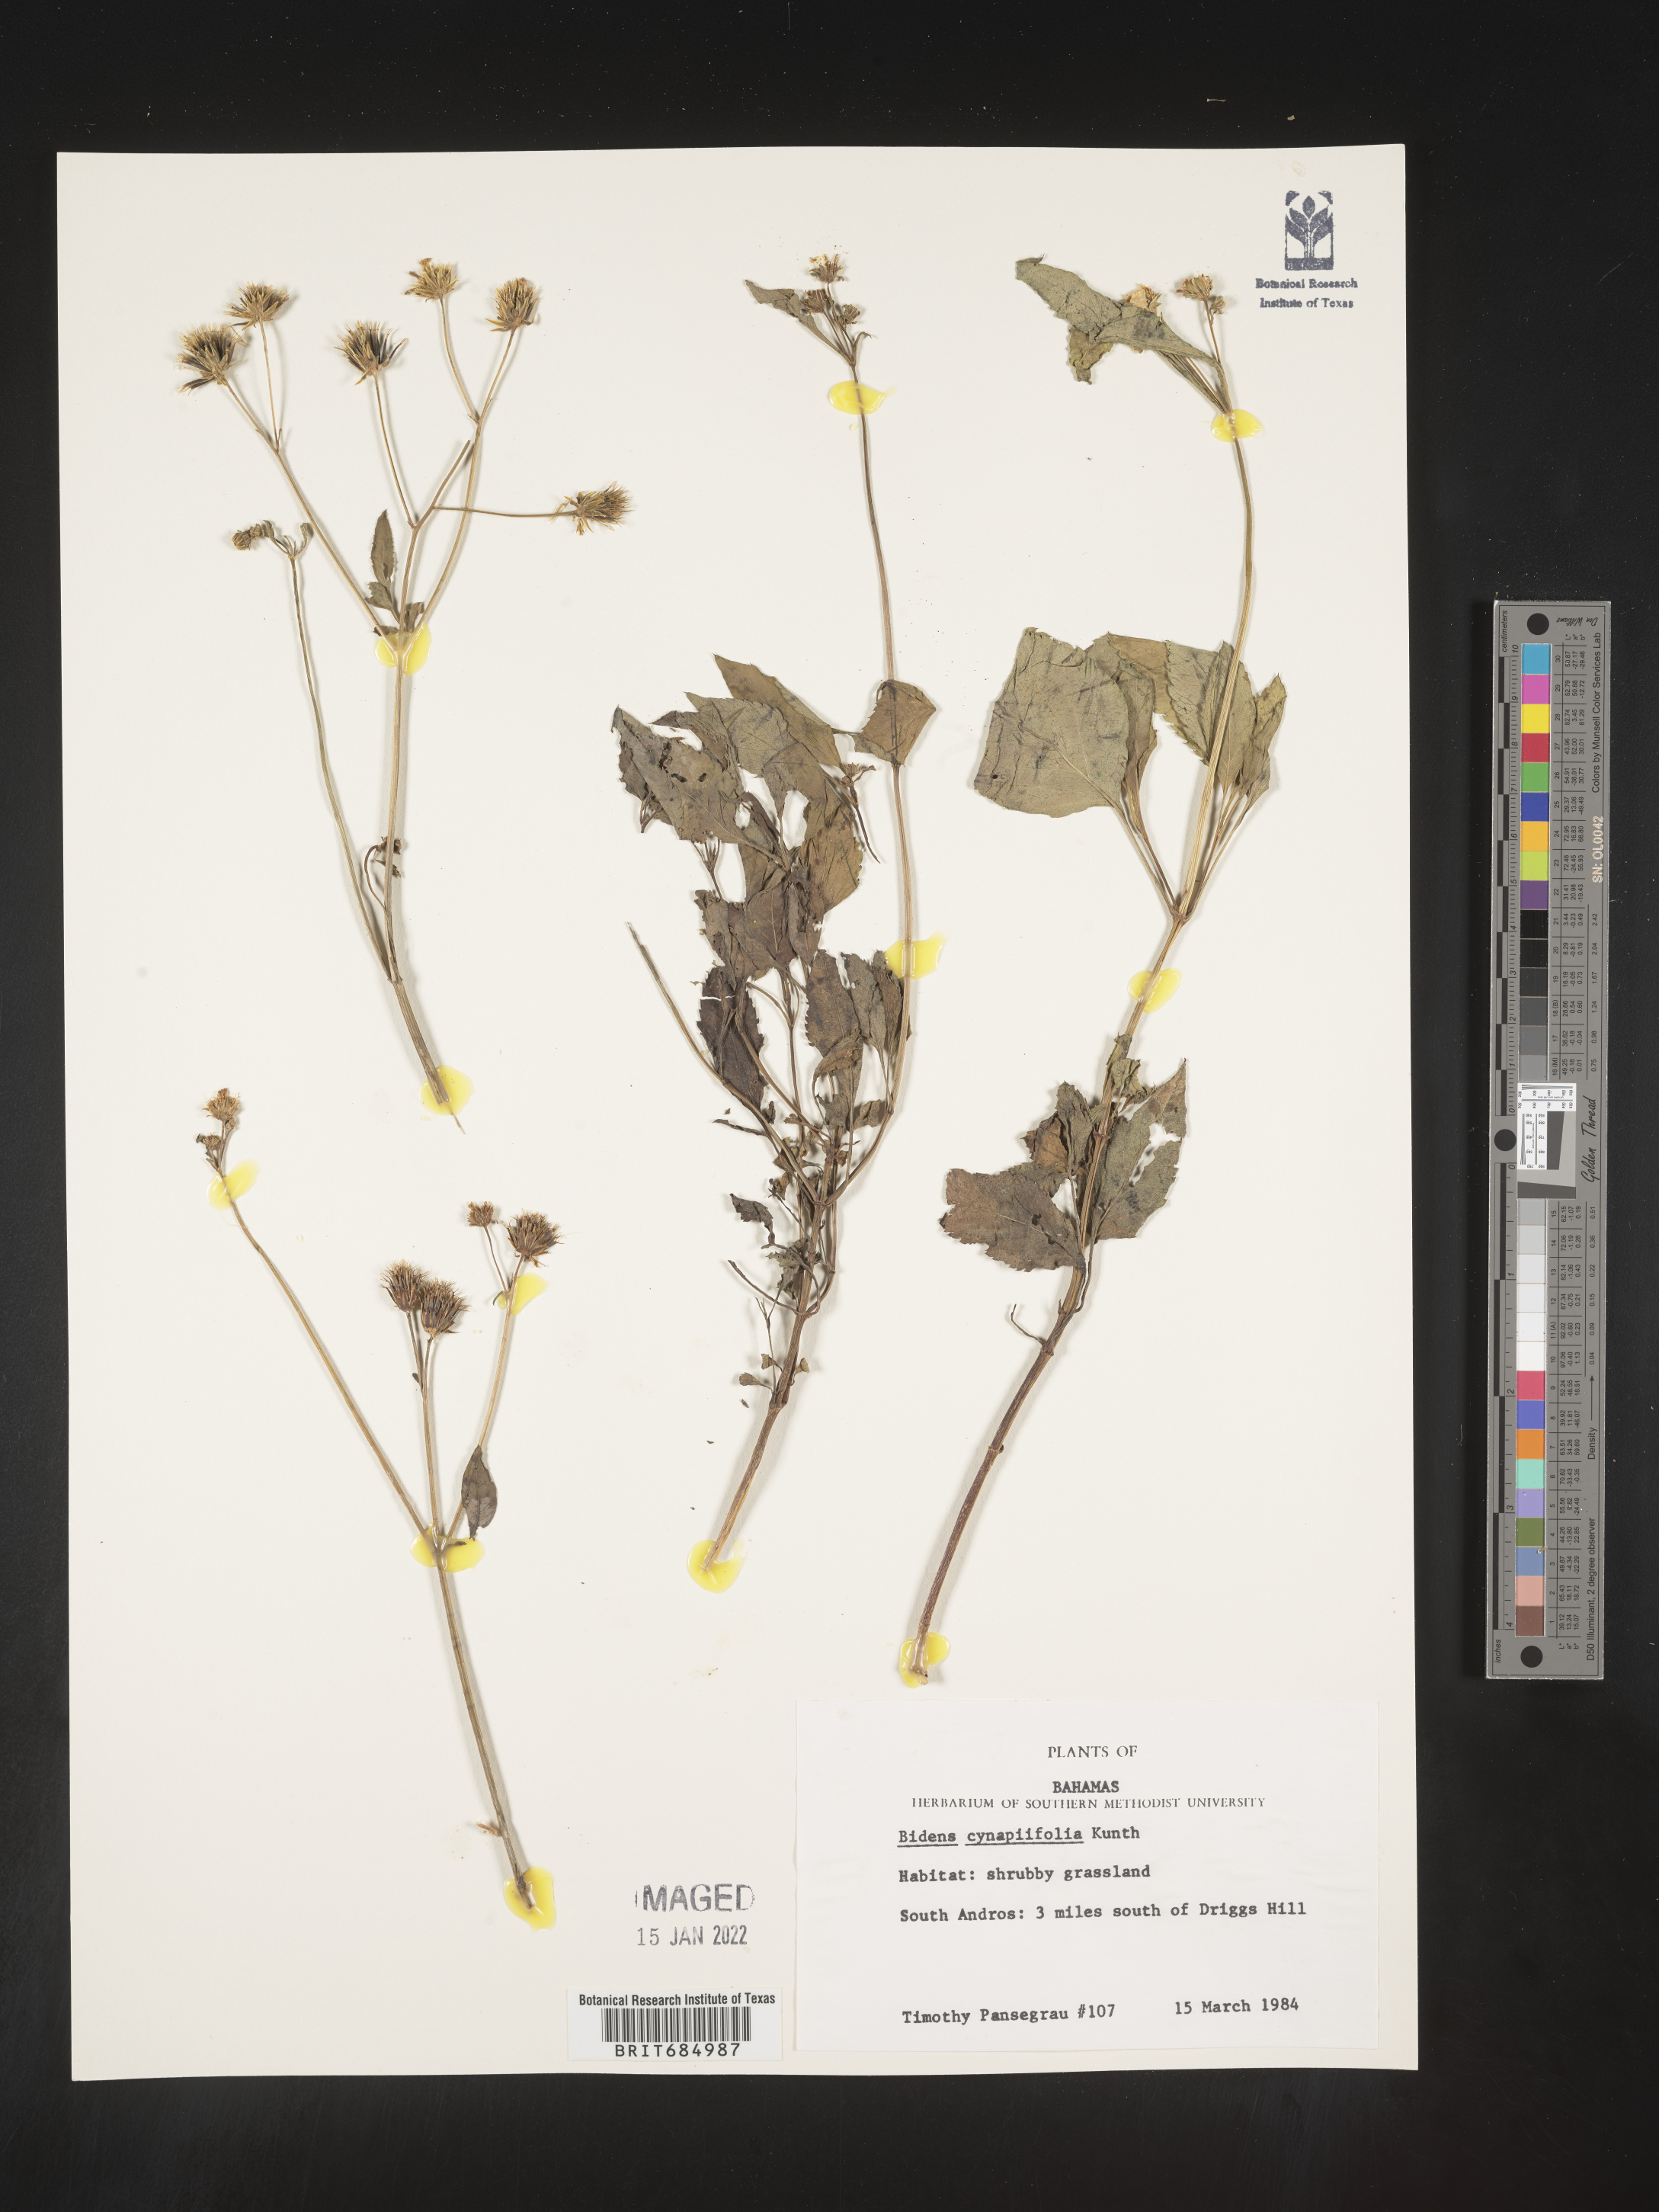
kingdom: Plantae
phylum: Tracheophyta
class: Magnoliopsida
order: Asterales
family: Asteraceae
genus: Bidens
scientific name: Bidens
